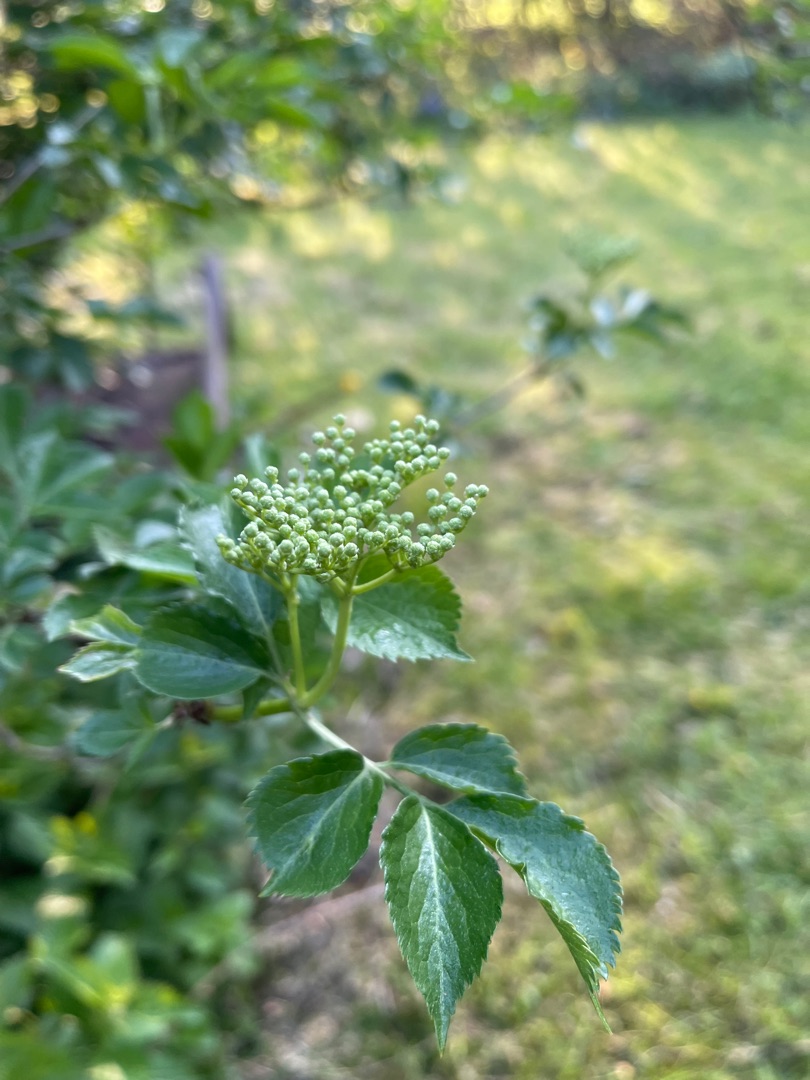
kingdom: Plantae
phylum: Tracheophyta
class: Magnoliopsida
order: Dipsacales
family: Viburnaceae
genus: Sambucus
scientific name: Sambucus nigra
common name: Almindelig hyld
